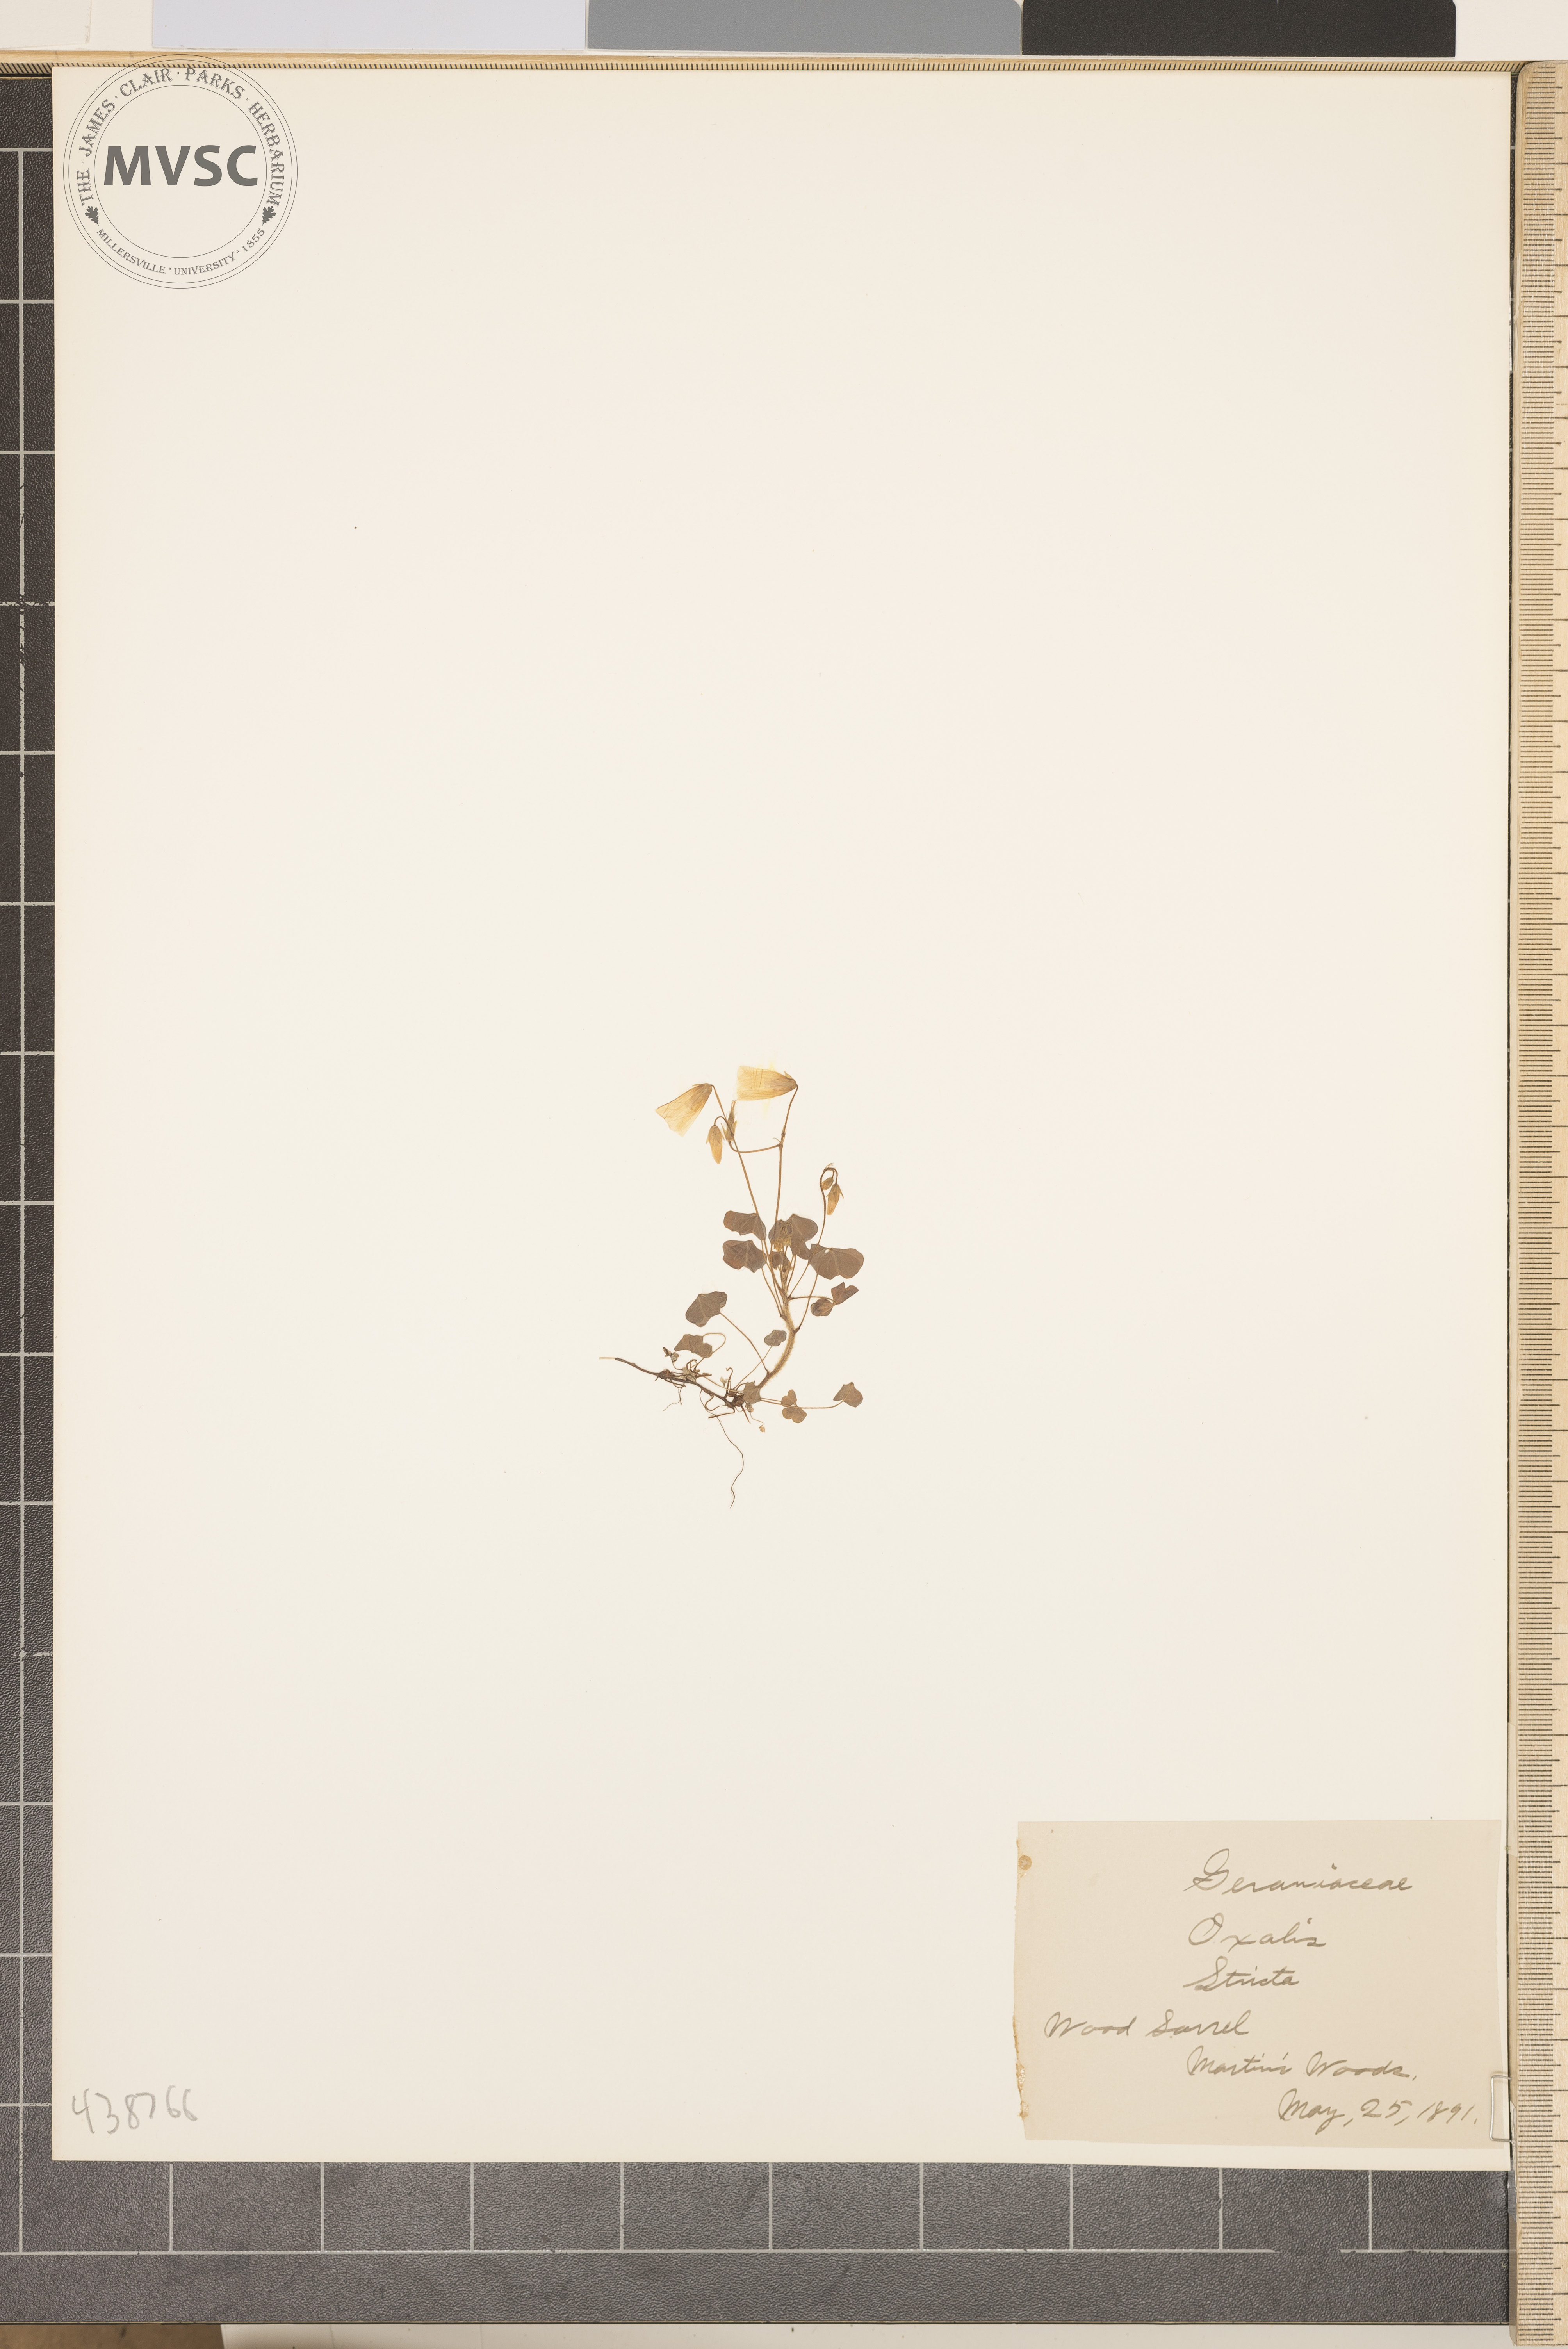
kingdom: Plantae
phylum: Tracheophyta
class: Magnoliopsida
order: Oxalidales
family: Oxalidaceae
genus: Oxalis
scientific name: Oxalis stricta
